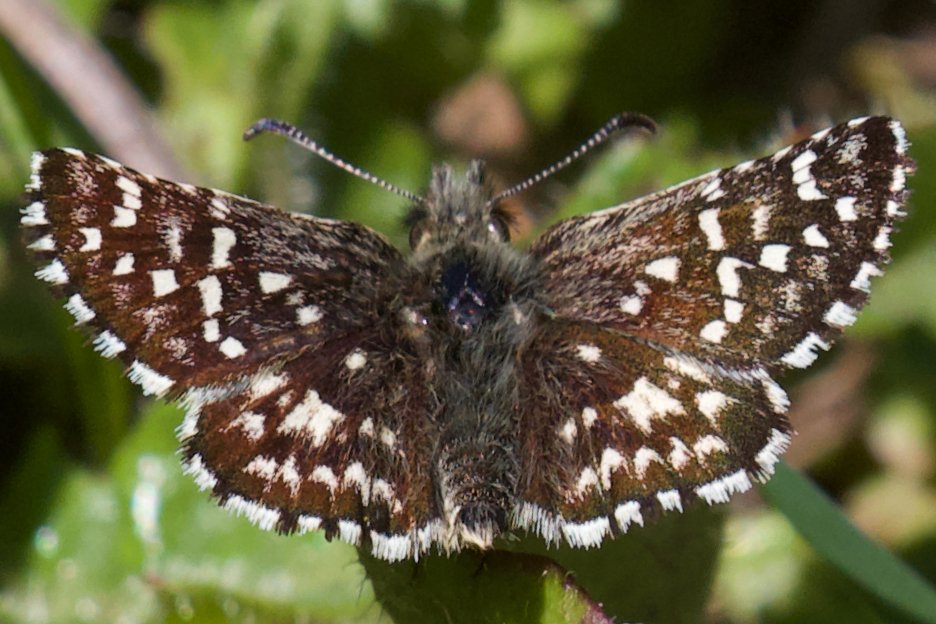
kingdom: Animalia
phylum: Arthropoda
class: Insecta
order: Lepidoptera
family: Hesperiidae
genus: Pyrgus
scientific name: Pyrgus ruralis
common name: Two-banded Checkered-Skipper
